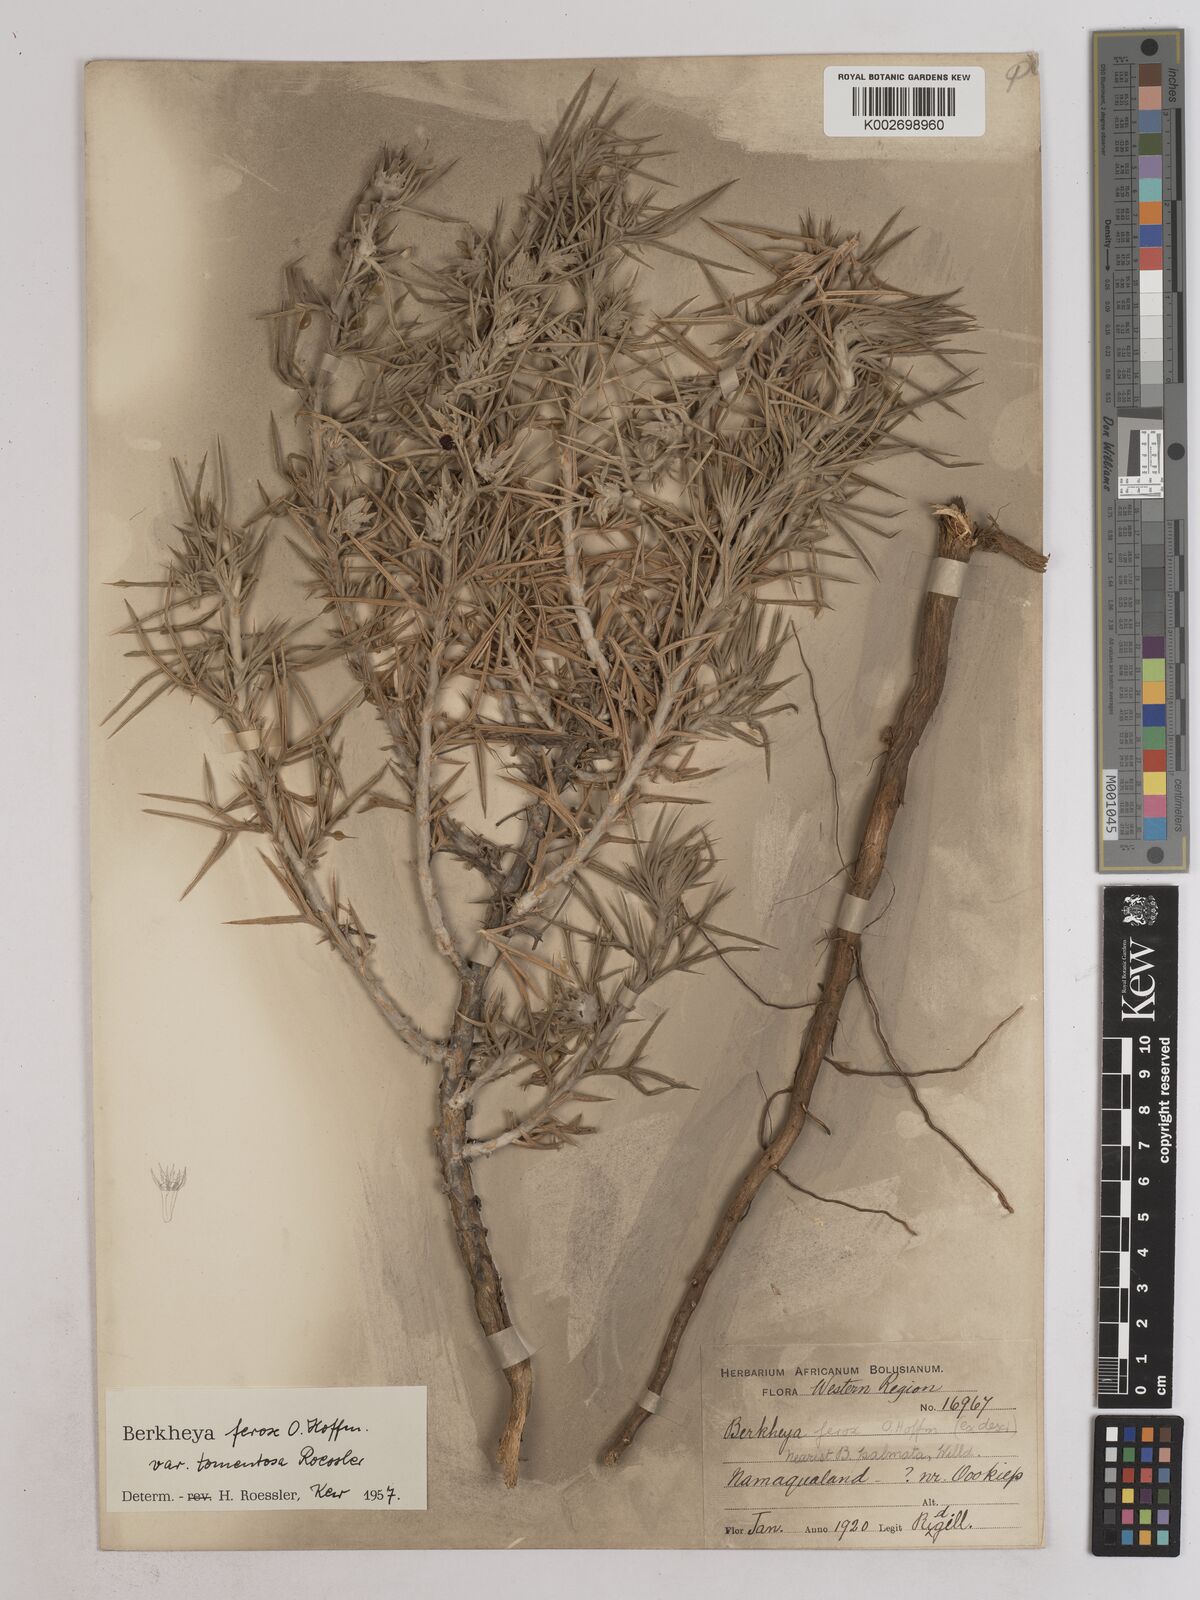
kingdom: Plantae
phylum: Tracheophyta
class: Magnoliopsida
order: Asterales
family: Asteraceae
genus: Berkheya
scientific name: Berkheya ferox
